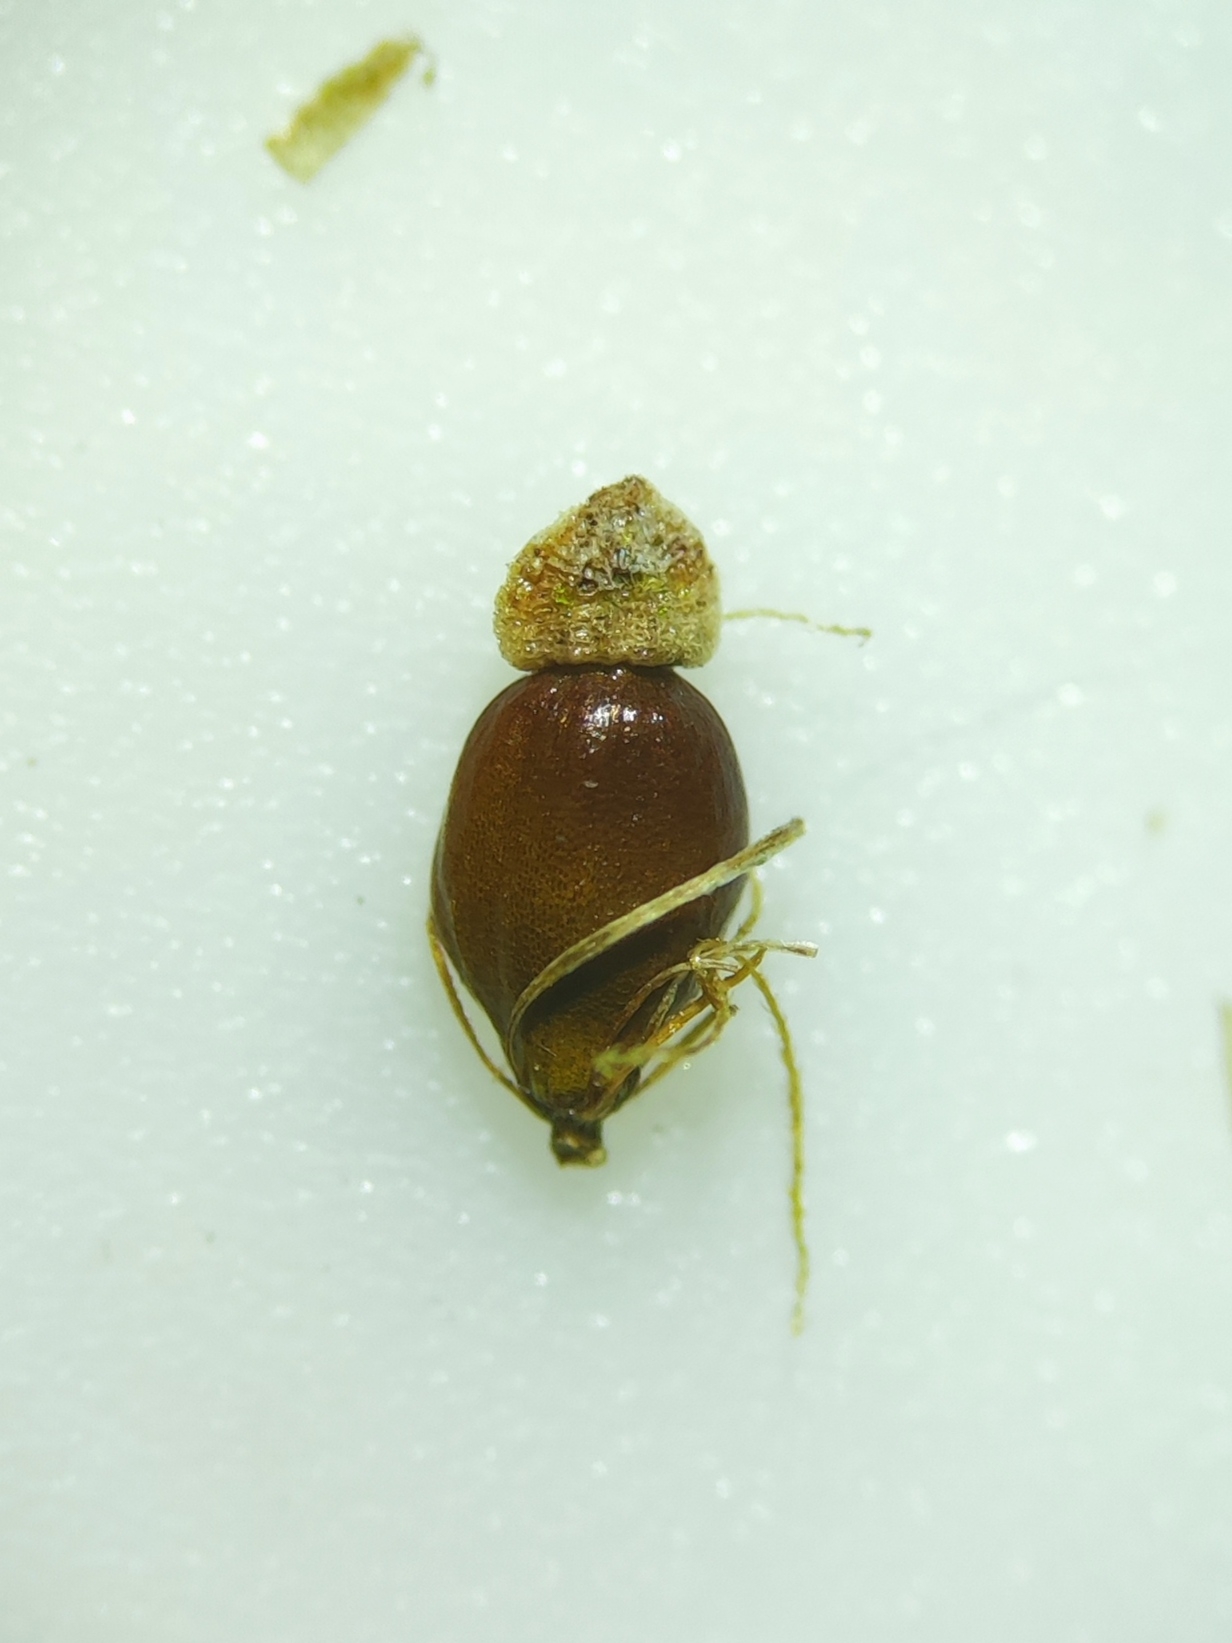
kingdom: Plantae
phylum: Tracheophyta
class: Liliopsida
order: Poales
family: Cyperaceae
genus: Eleocharis
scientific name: Eleocharis palustris
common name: Almindelig sumpstrå
